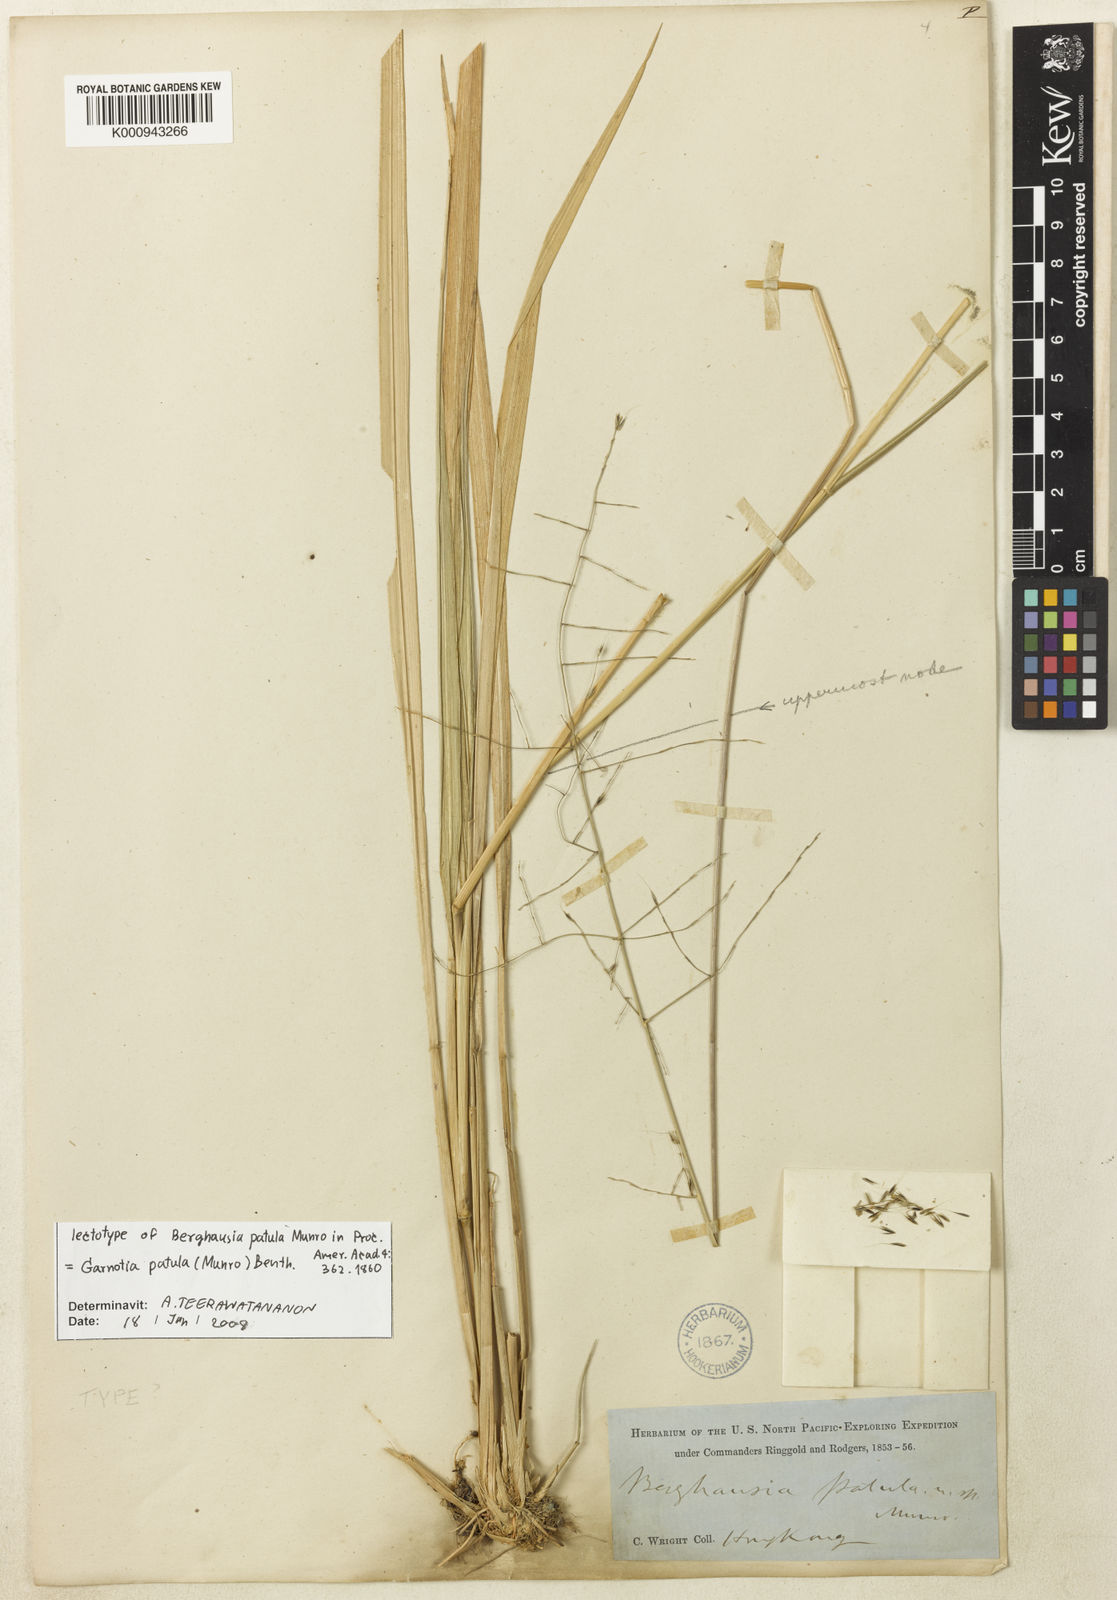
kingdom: Plantae
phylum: Tracheophyta
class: Liliopsida
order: Poales
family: Poaceae
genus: Garnotia
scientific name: Garnotia patula
